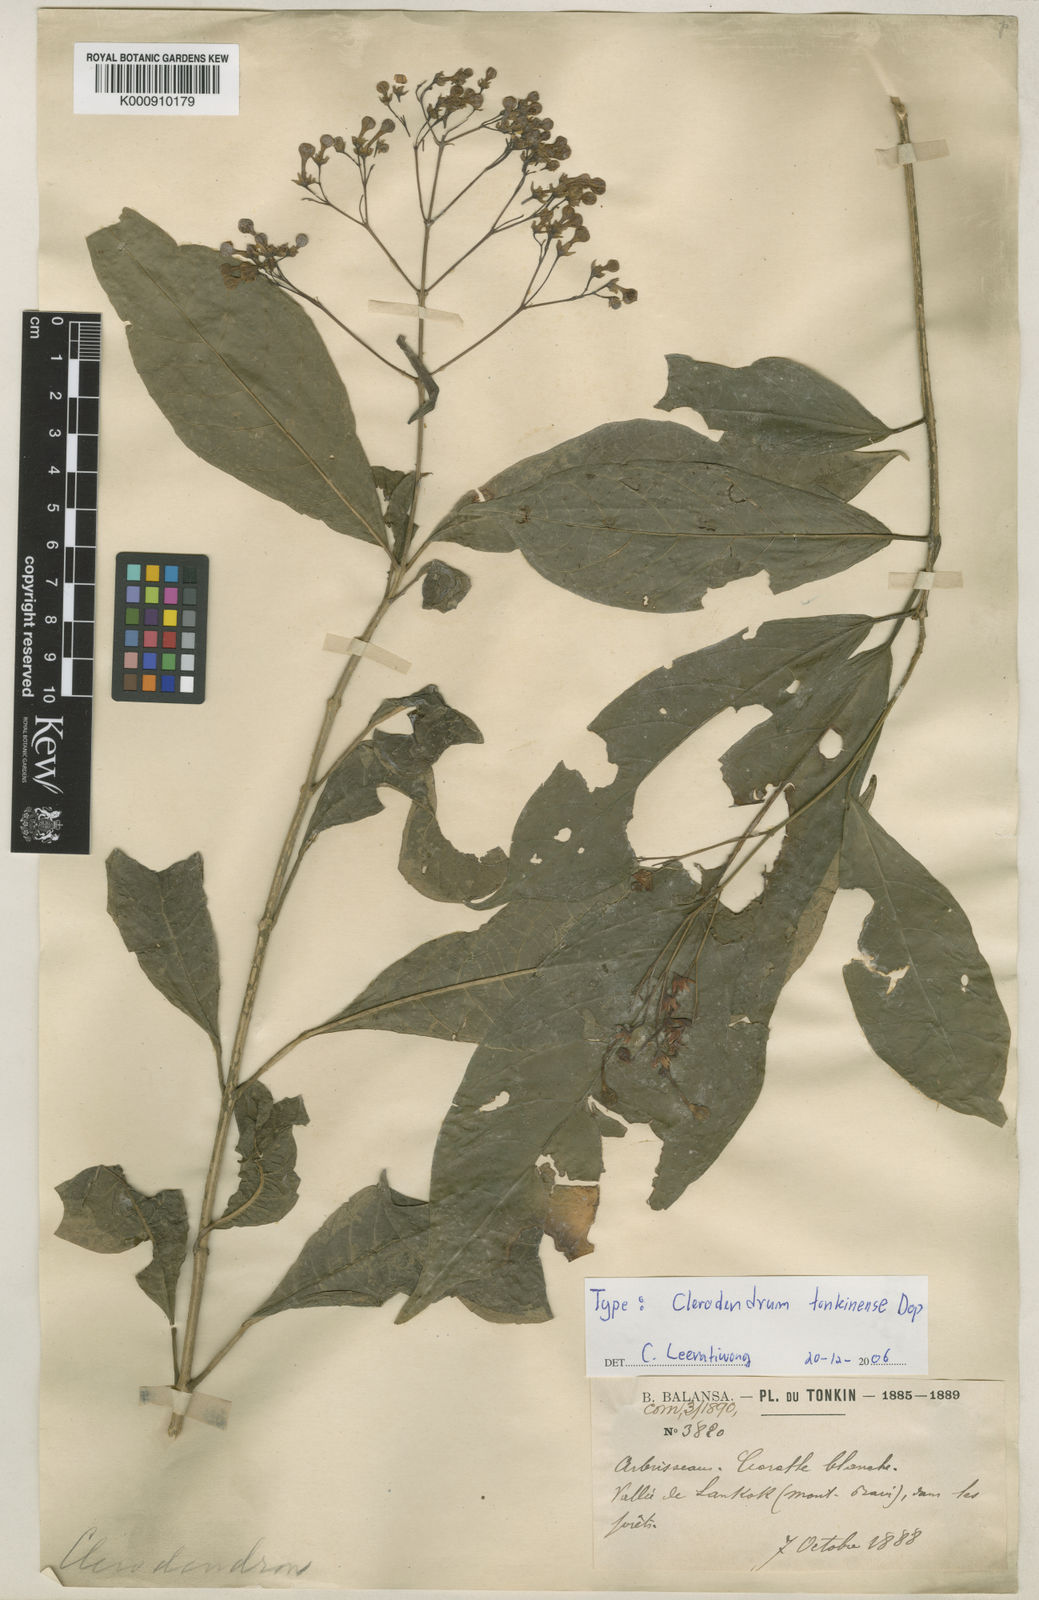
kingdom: Plantae
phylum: Tracheophyta
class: Magnoliopsida
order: Lamiales
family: Lamiaceae
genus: Clerodendrum
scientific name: Clerodendrum tonkinense
